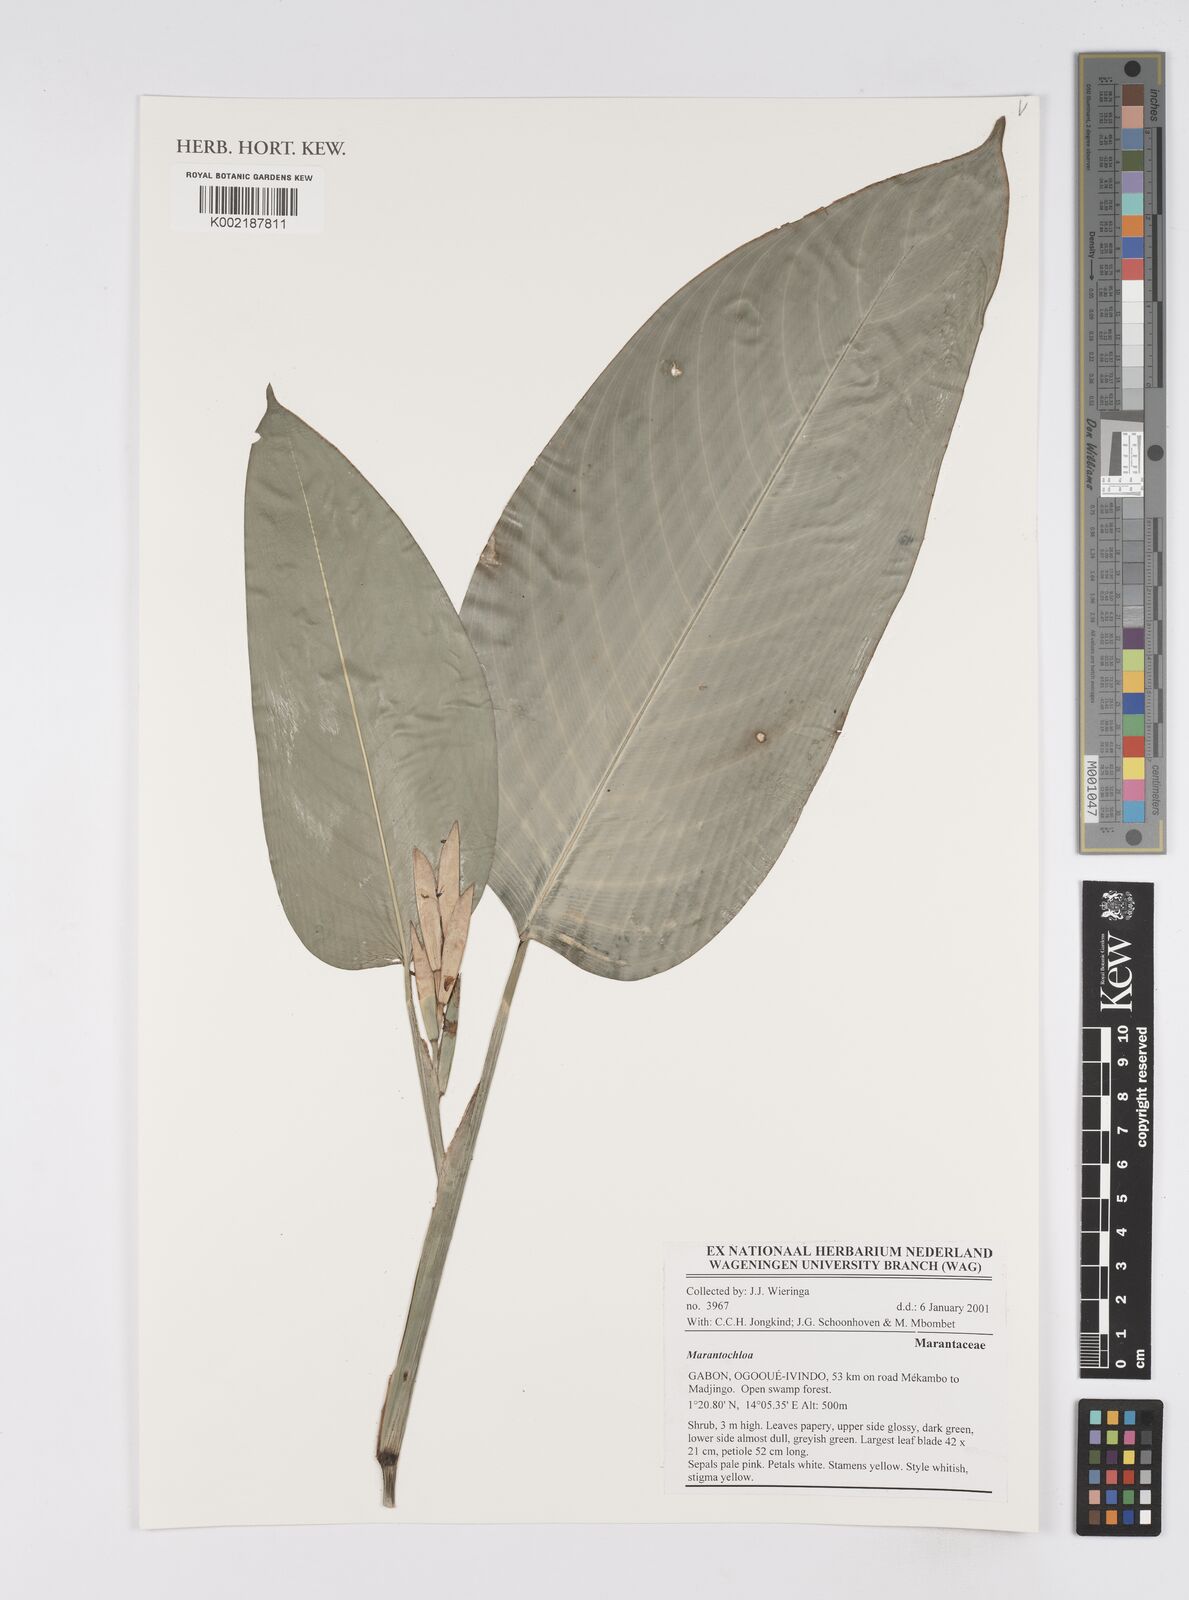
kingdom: Plantae
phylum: Tracheophyta
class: Liliopsida
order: Zingiberales
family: Marantaceae
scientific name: Marantaceae
